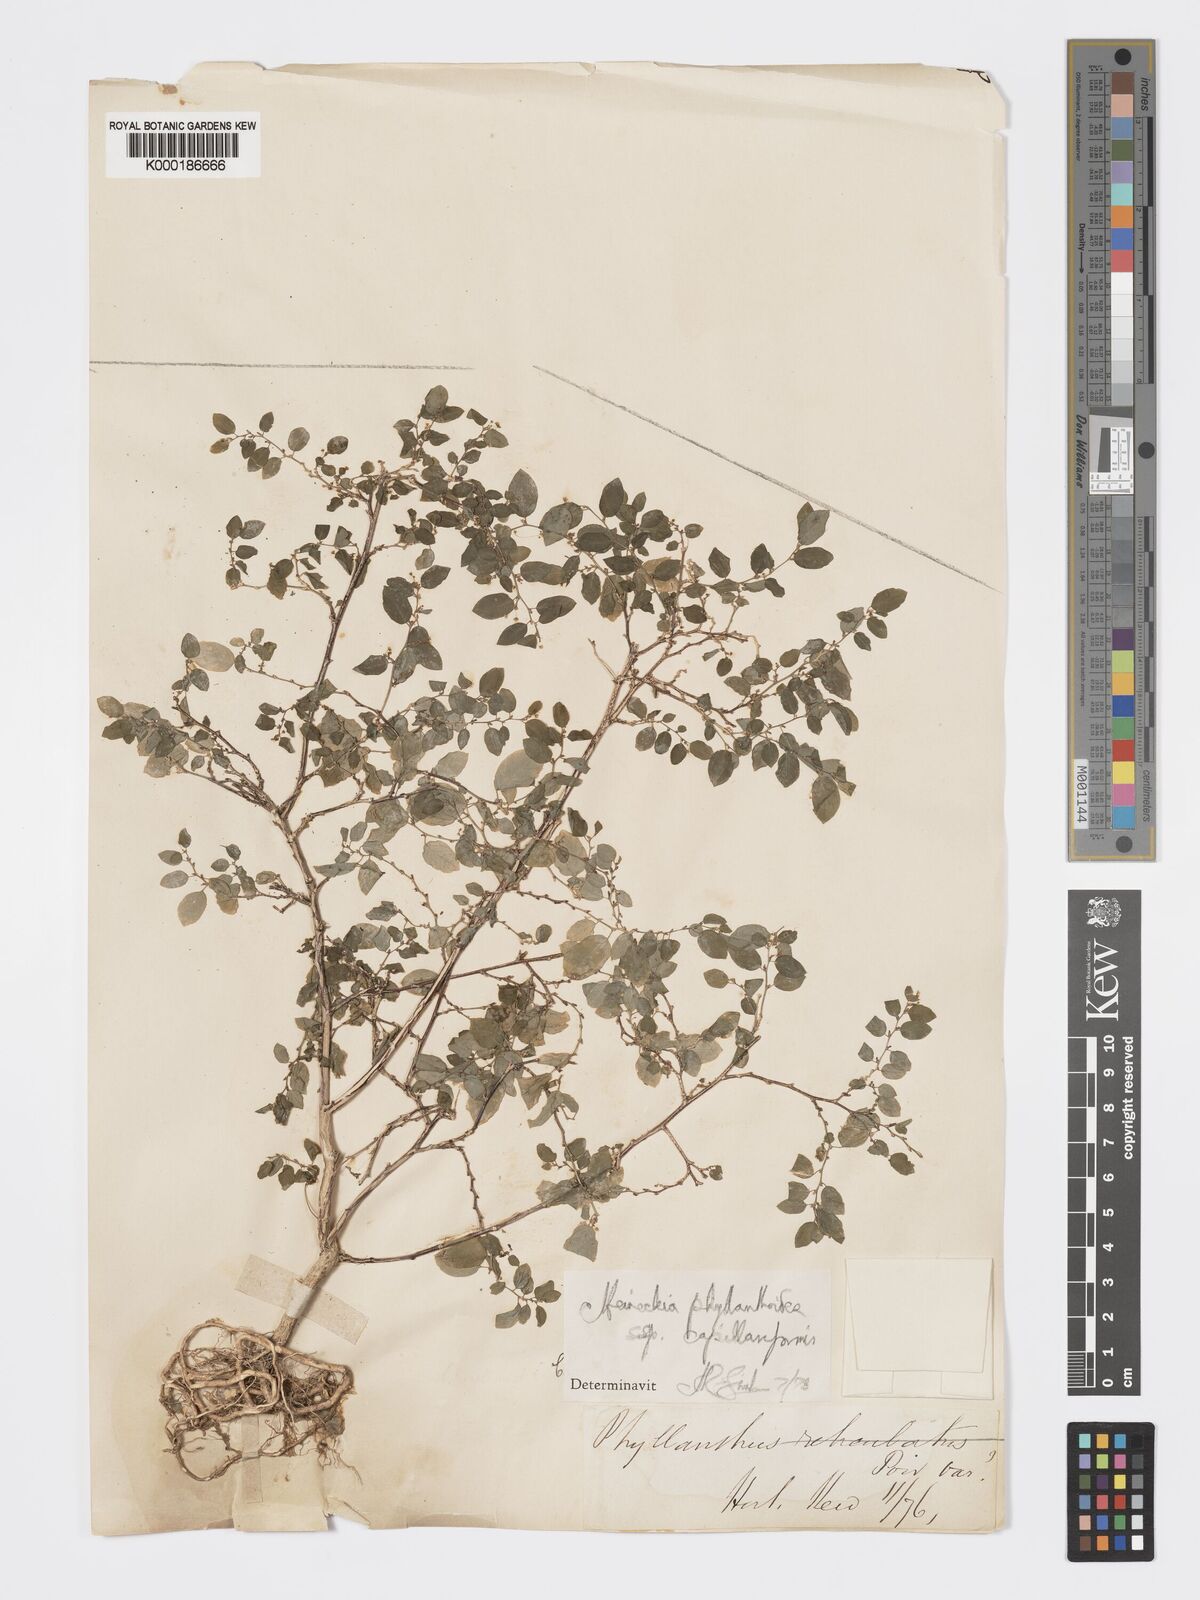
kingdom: Plantae
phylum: Tracheophyta
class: Magnoliopsida
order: Malpighiales
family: Phyllanthaceae
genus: Meineckia
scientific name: Meineckia phyllanthoides
